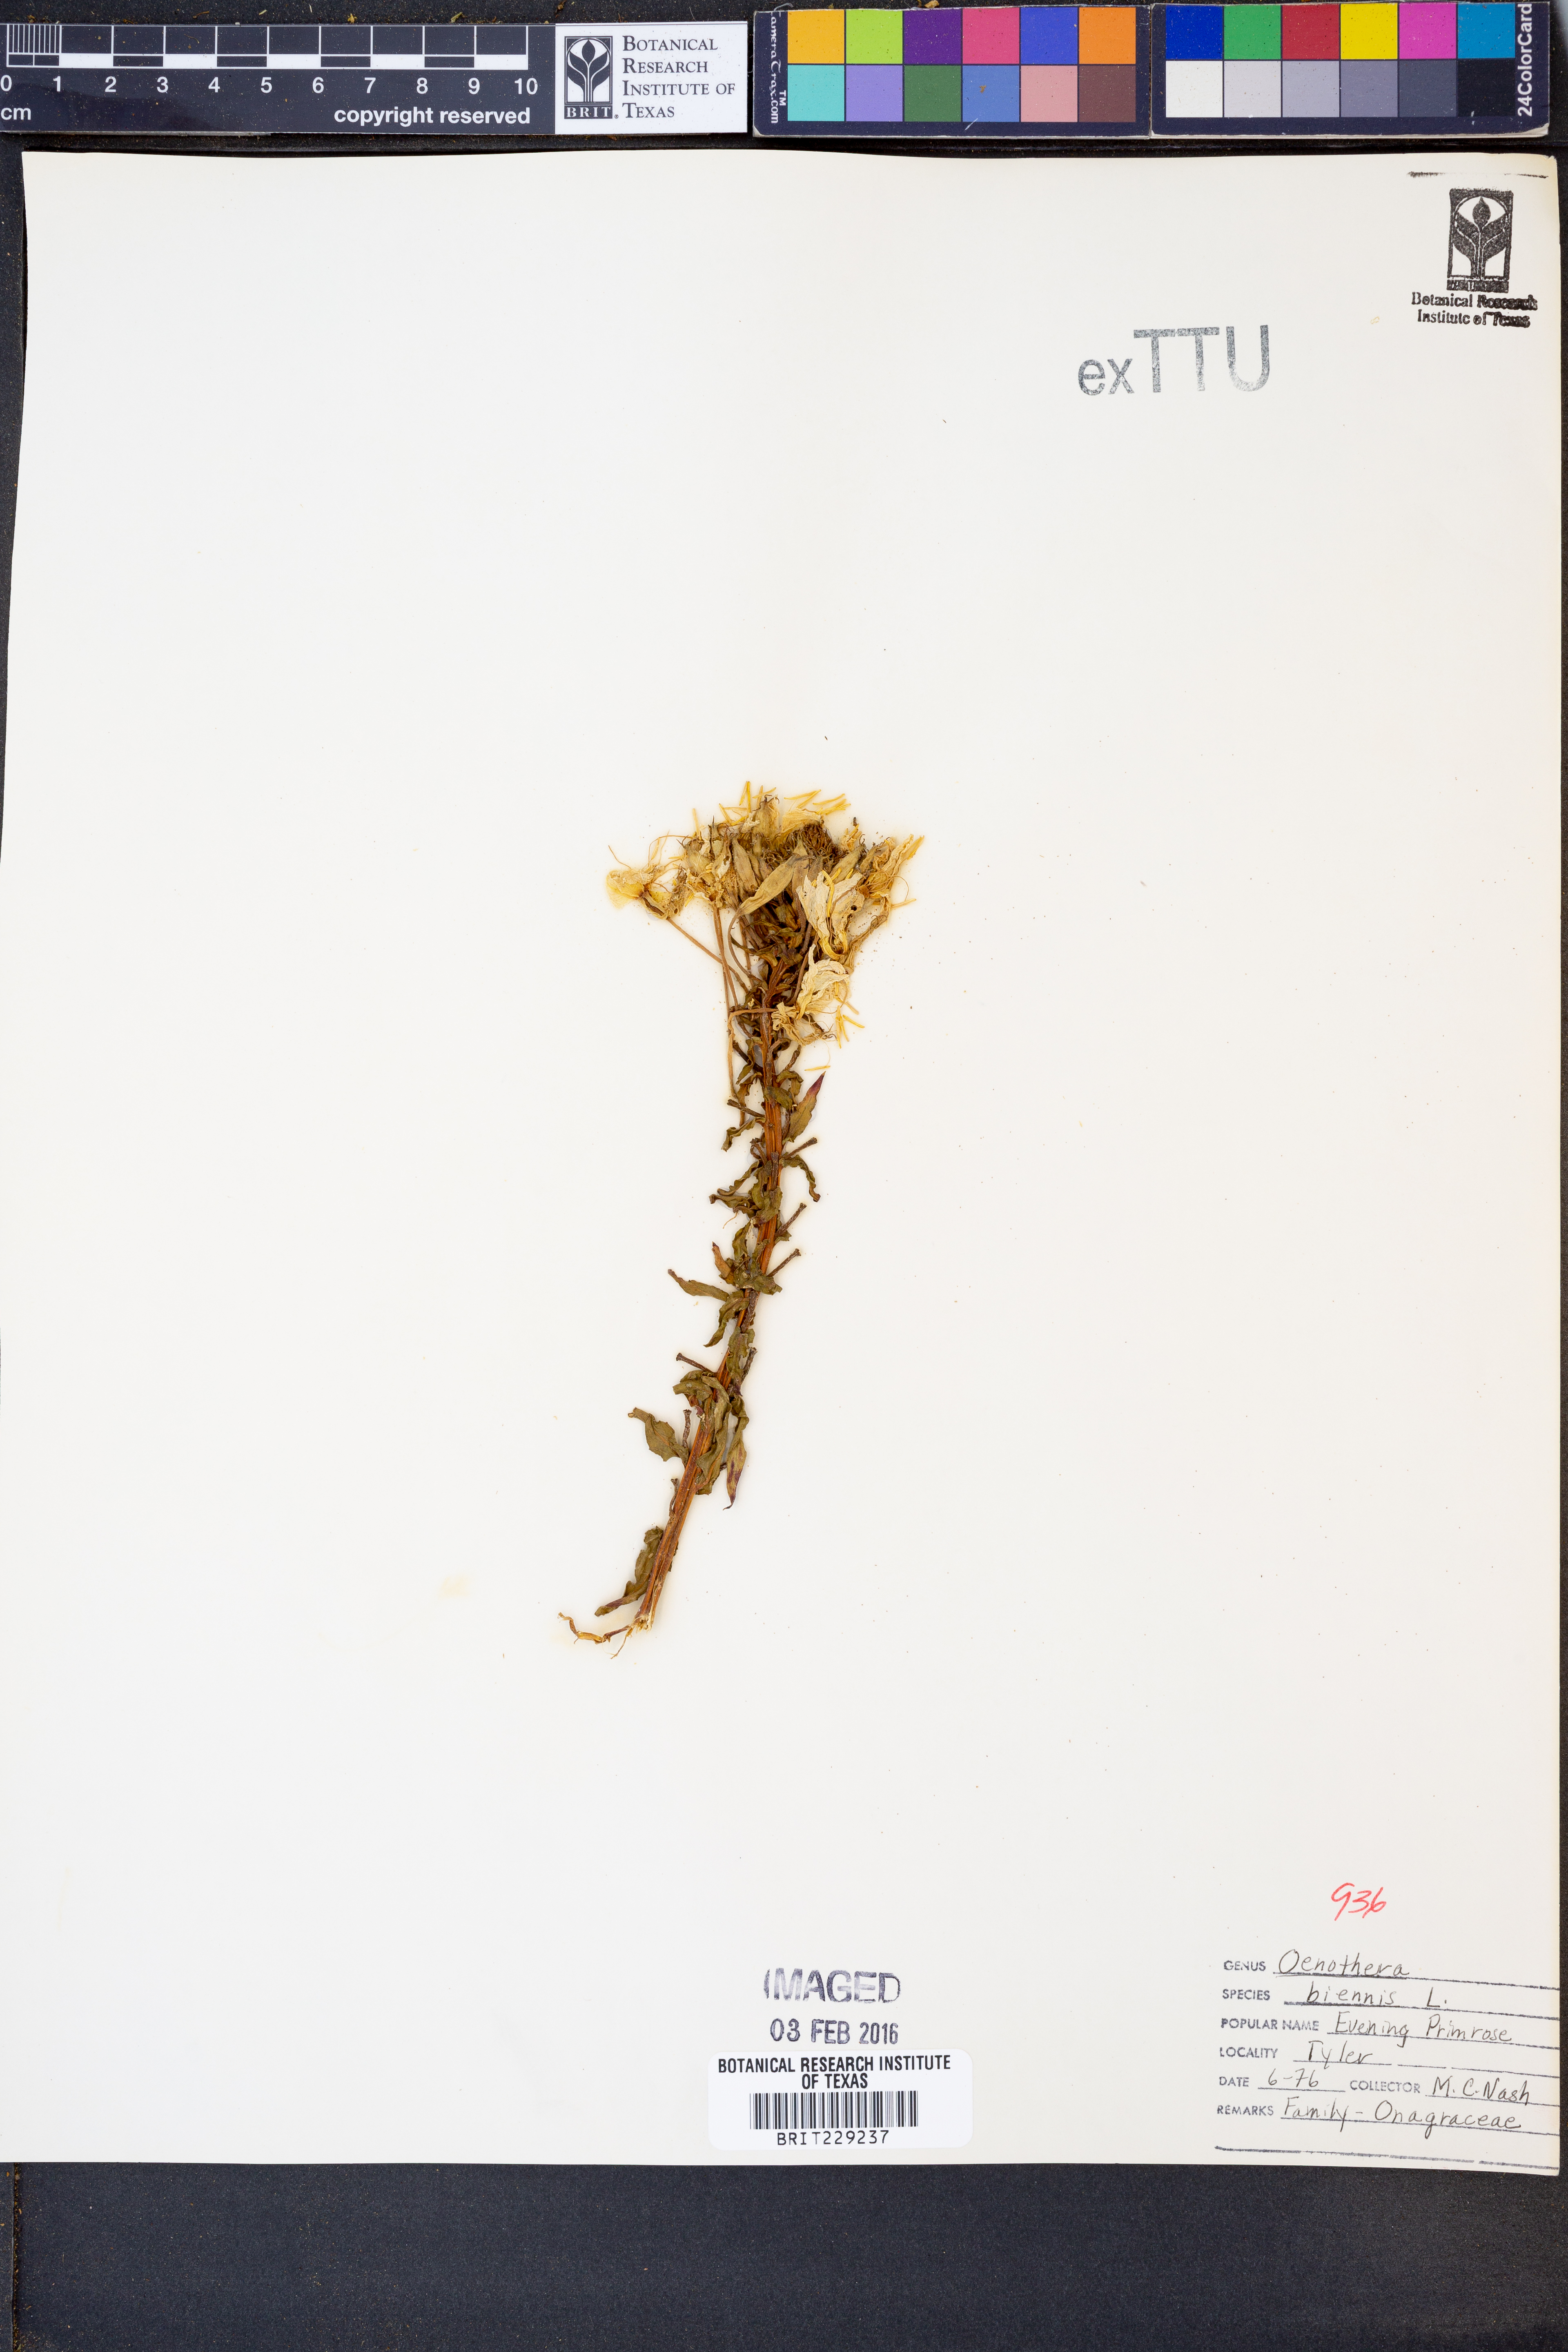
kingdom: Plantae
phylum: Tracheophyta
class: Magnoliopsida
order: Myrtales
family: Onagraceae
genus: Oenothera
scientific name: Oenothera biennis
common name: Common evening-primrose
